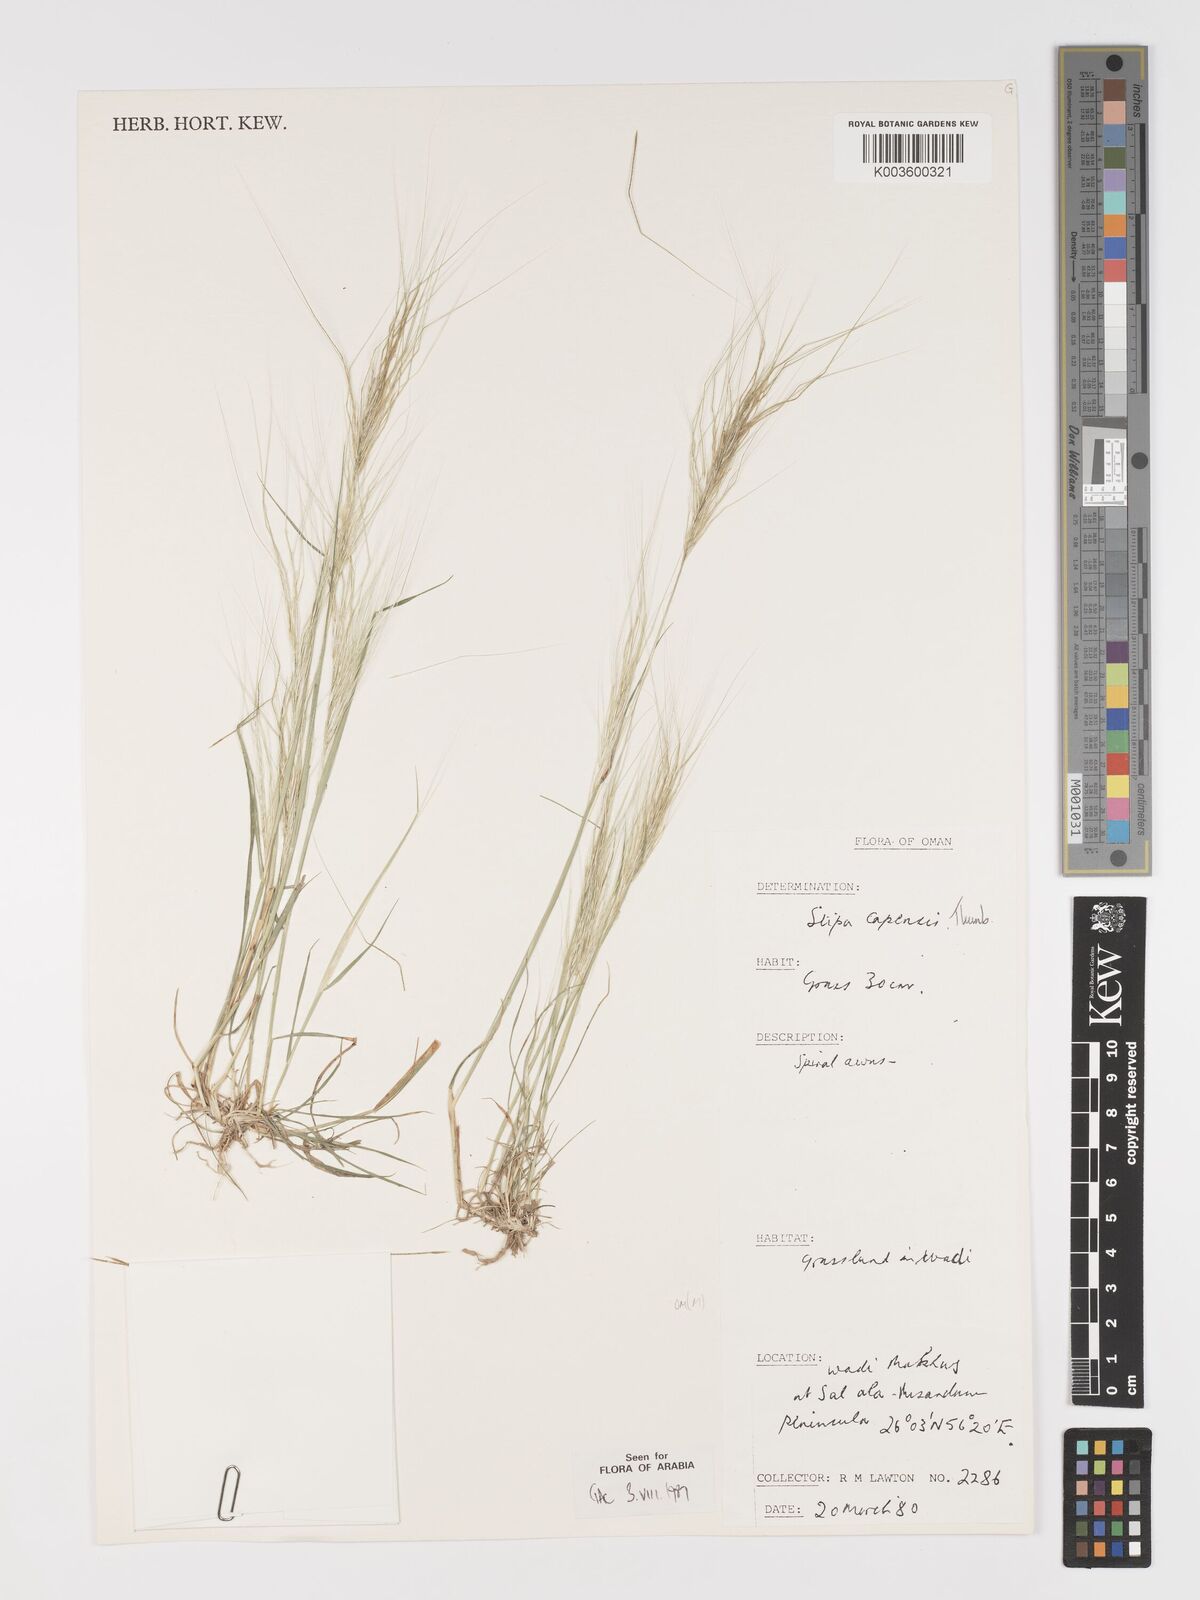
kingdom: Plantae
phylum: Tracheophyta
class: Liliopsida
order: Poales
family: Poaceae
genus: Stipellula
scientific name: Stipellula capensis
